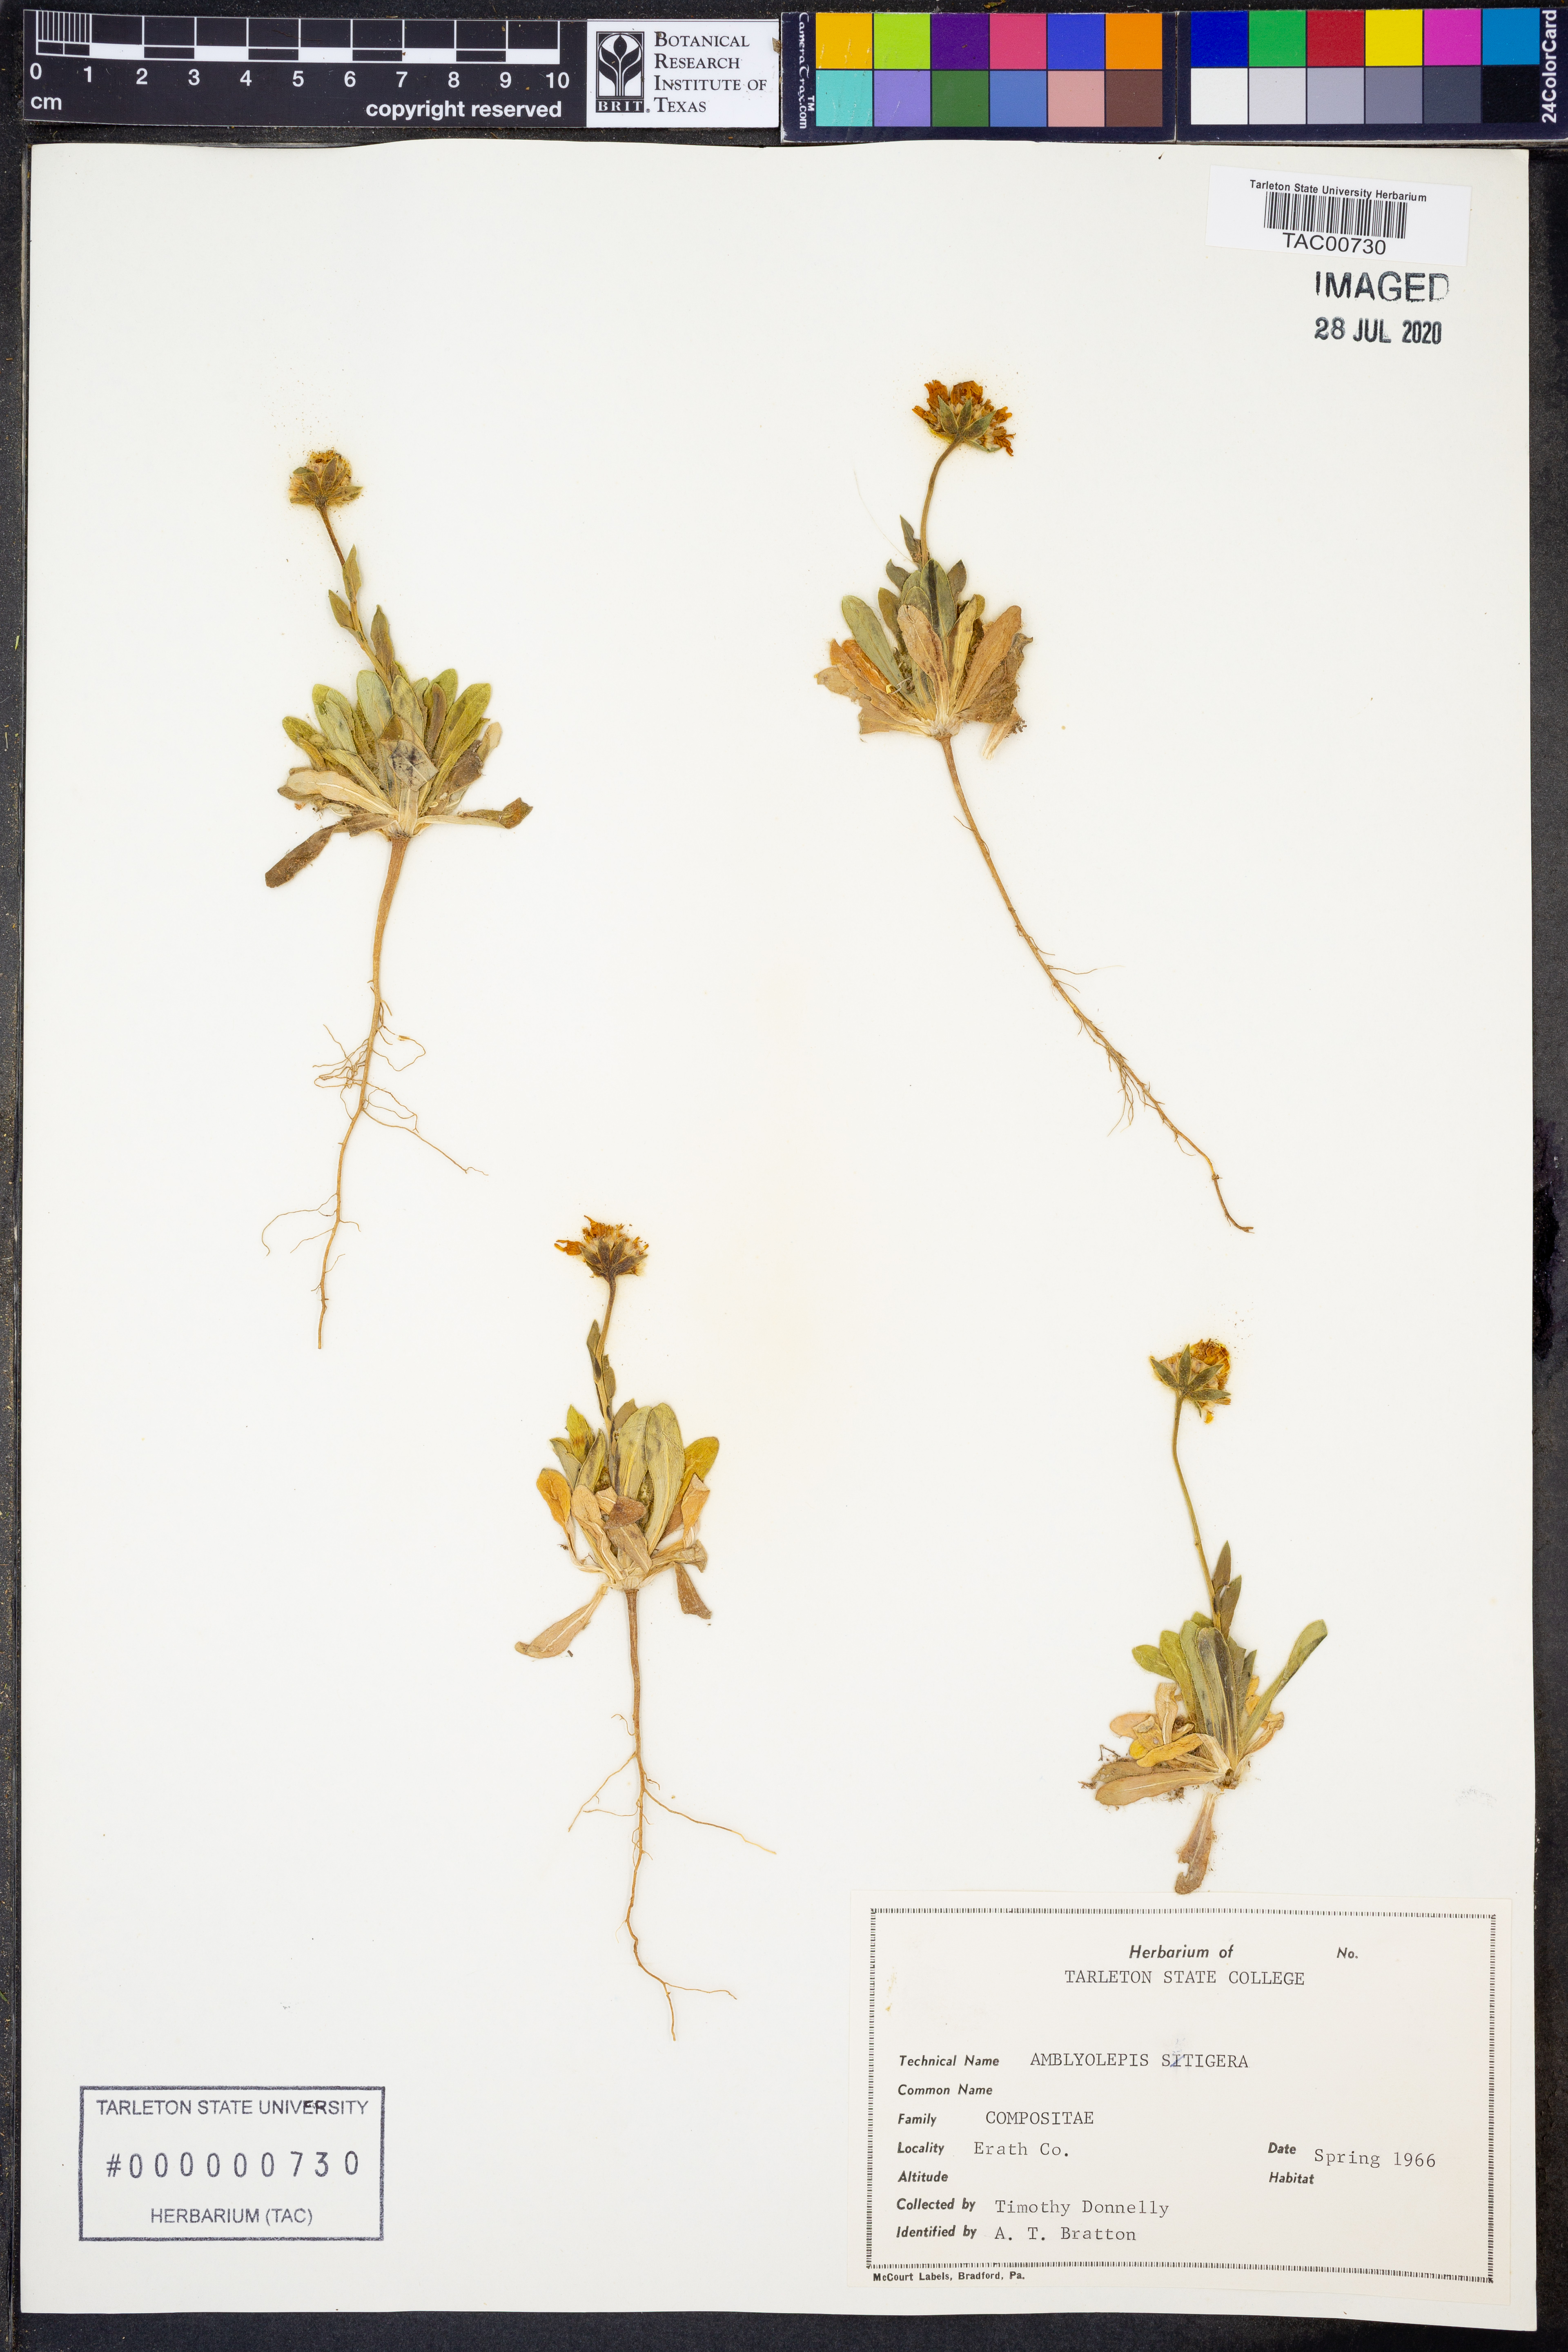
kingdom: Plantae
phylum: Tracheophyta
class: Magnoliopsida
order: Asterales
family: Asteraceae
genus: Amblyolepis
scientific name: Amblyolepis setigera
